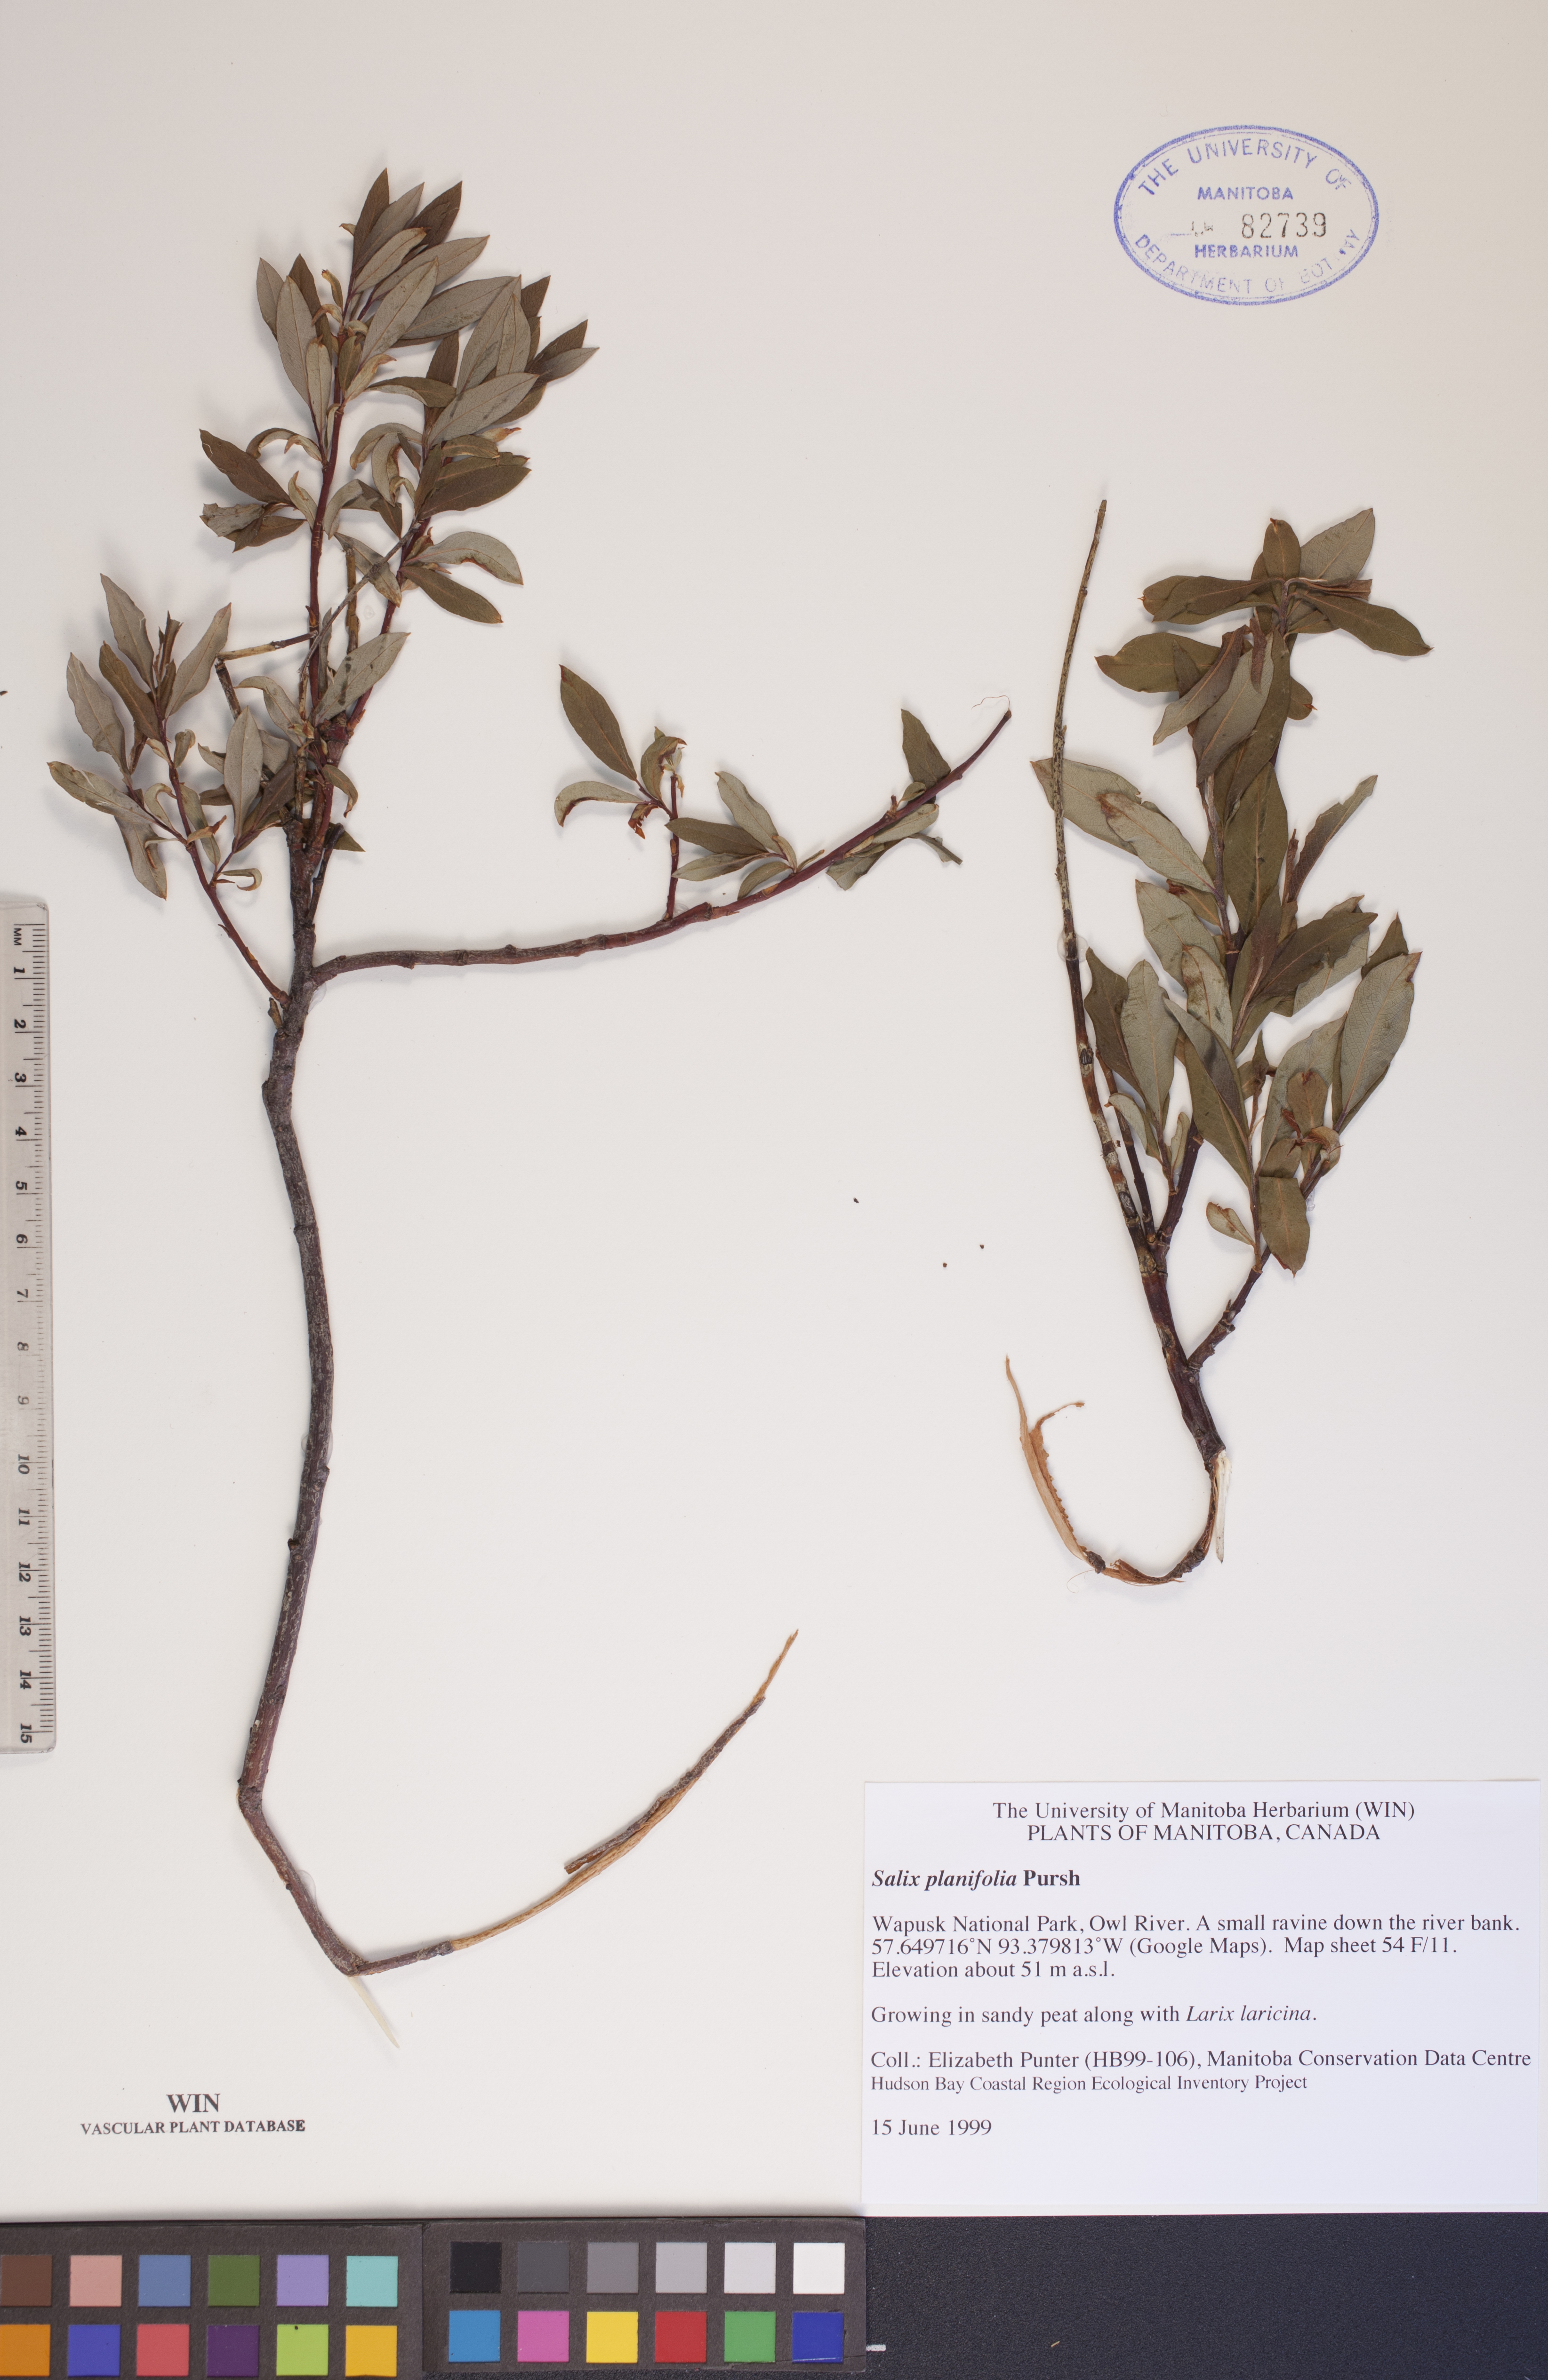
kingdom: Plantae
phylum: Tracheophyta
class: Magnoliopsida
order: Malpighiales
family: Salicaceae
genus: Salix
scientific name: Salix planifolia
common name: Mountain willow
